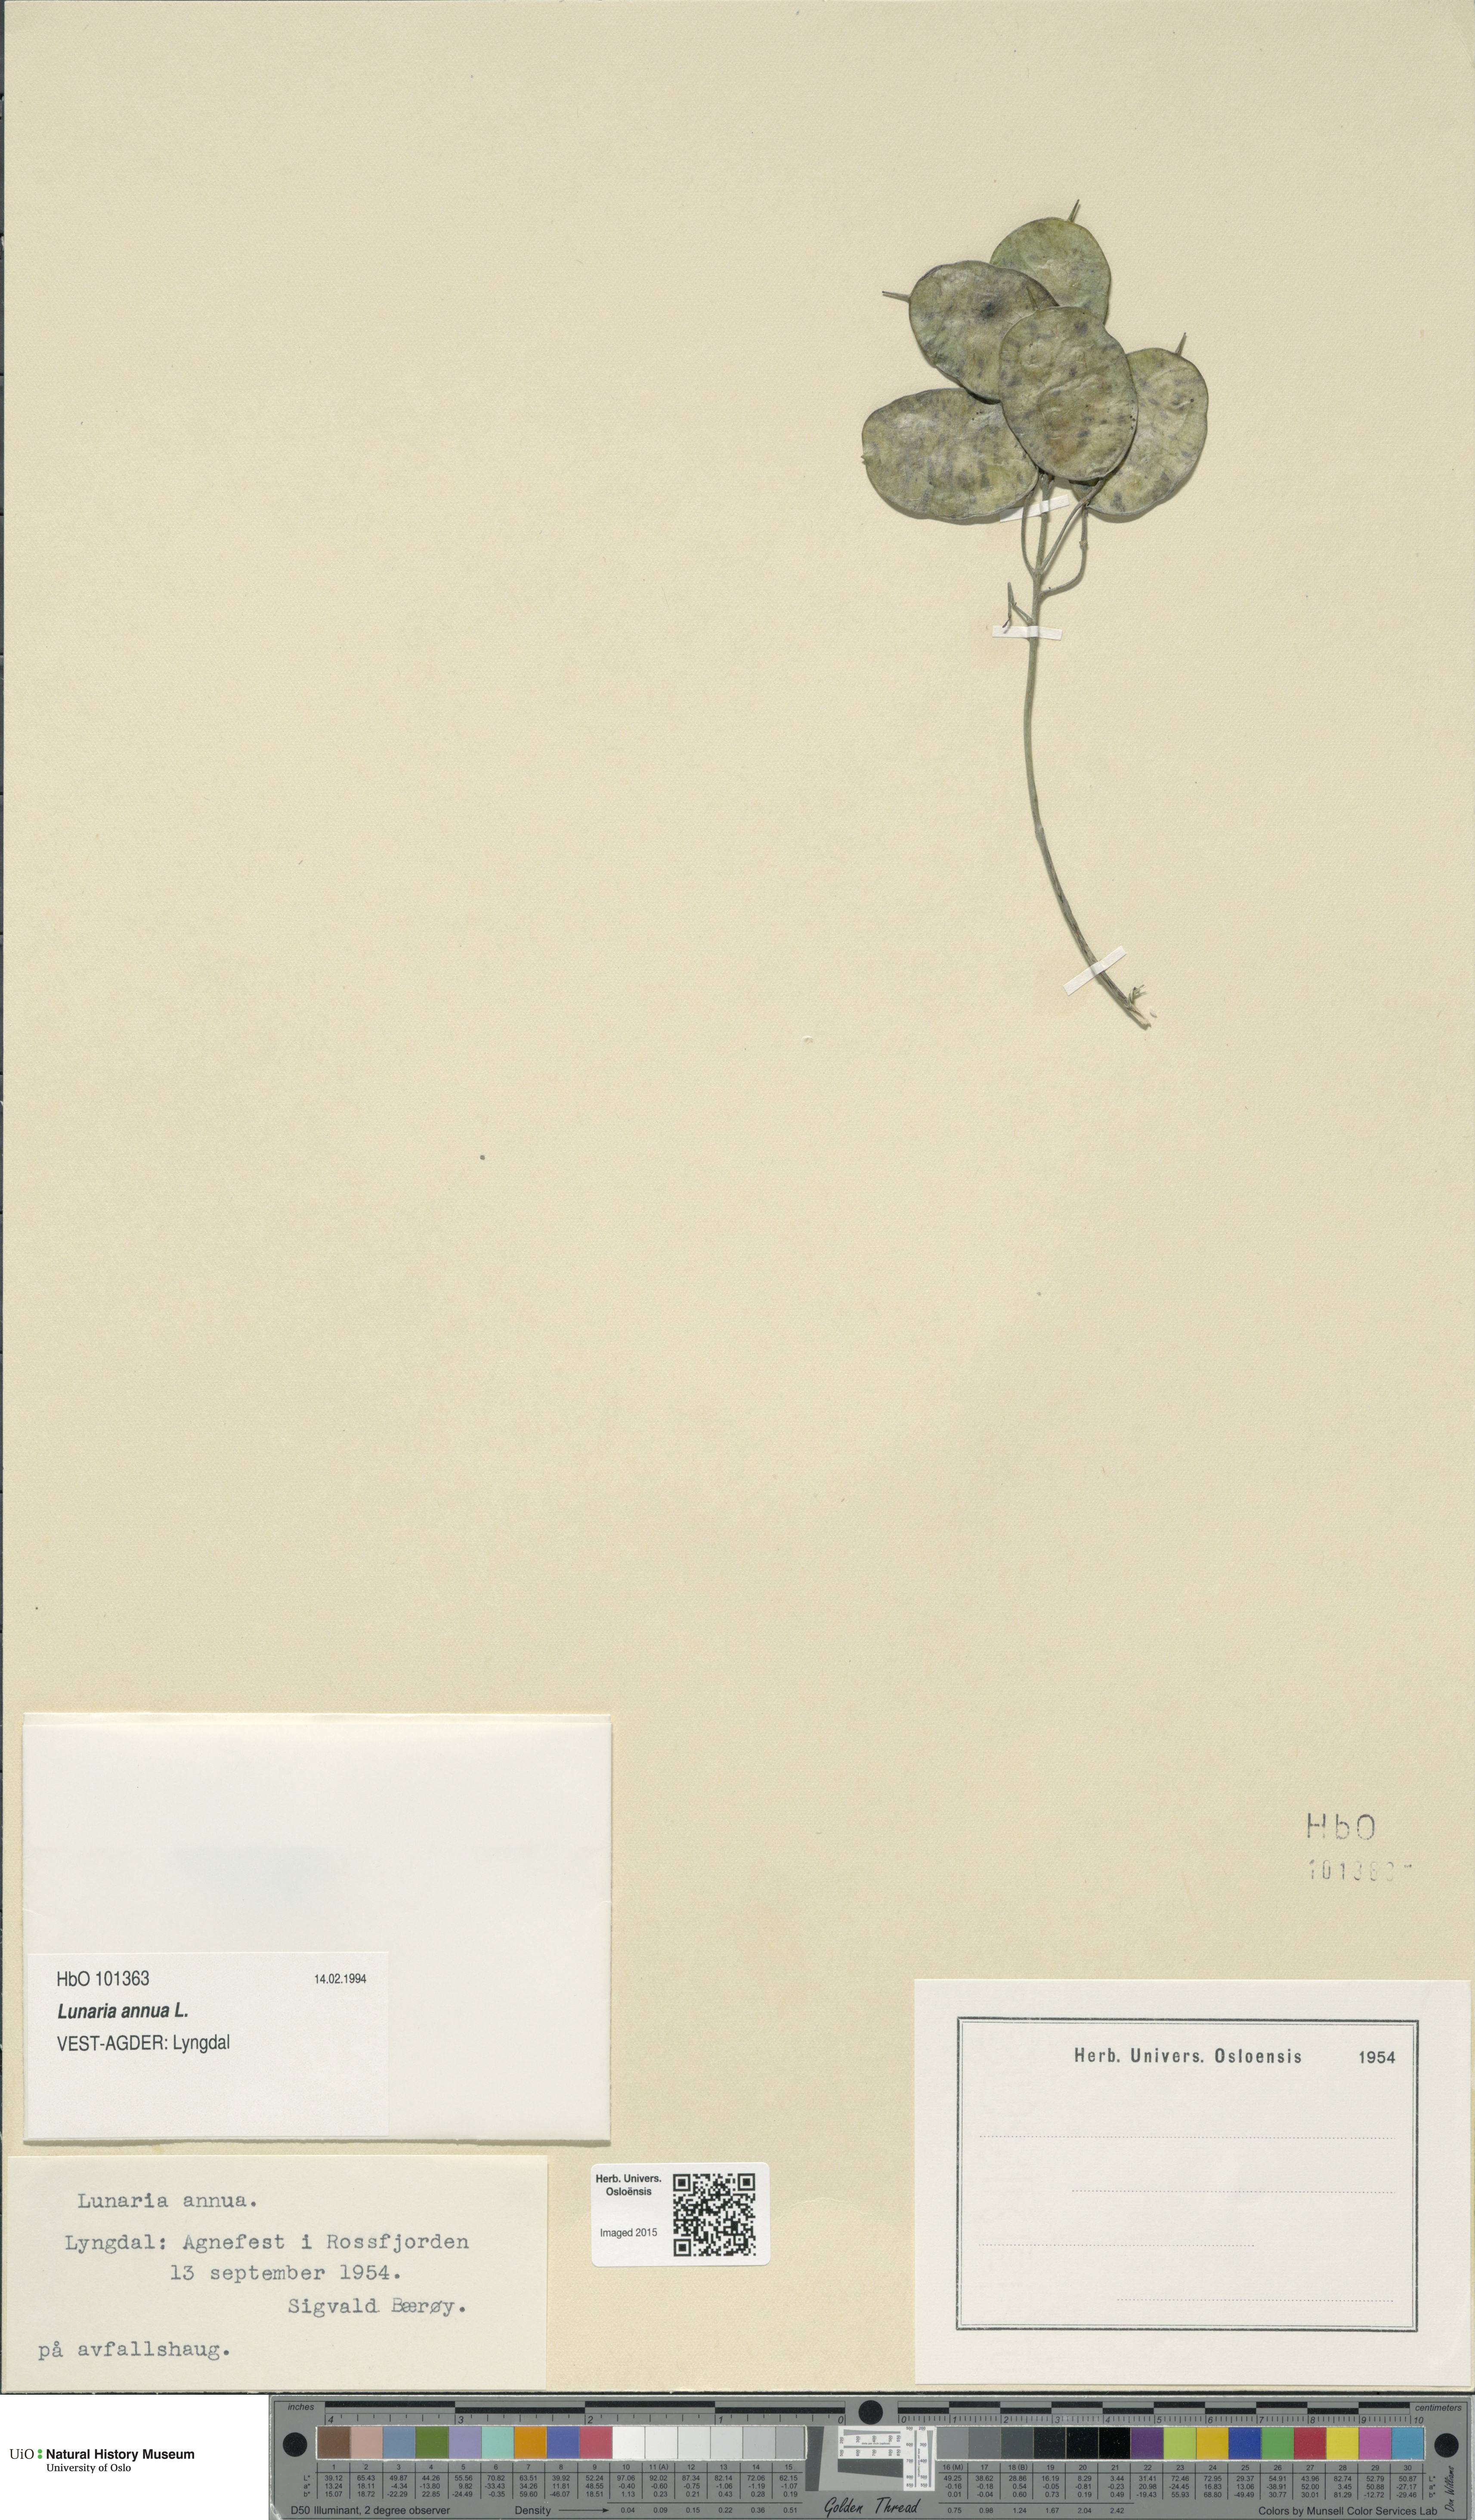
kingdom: Plantae
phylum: Tracheophyta
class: Magnoliopsida
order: Brassicales
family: Brassicaceae
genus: Lunaria
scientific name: Lunaria annua
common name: Honesty
